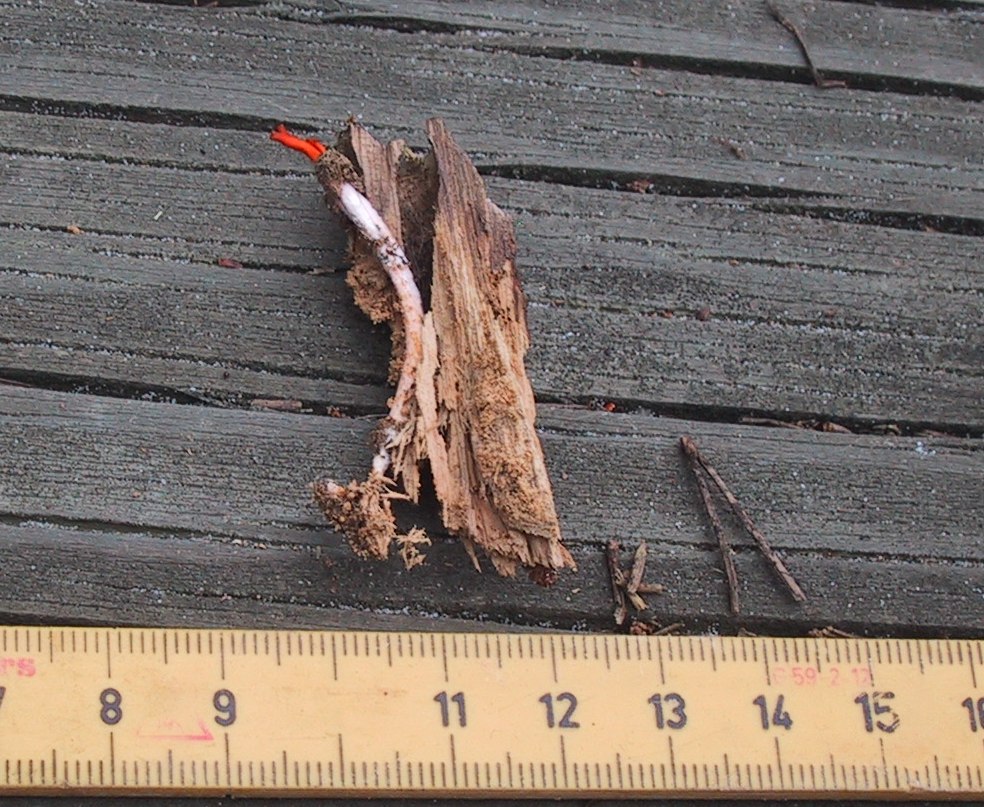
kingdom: Fungi
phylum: Basidiomycota
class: Dacrymycetes
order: Dacrymycetales
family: Dacrymycetaceae
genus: Calocera
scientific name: Calocera furcata
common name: fyrre-guldgaffel
